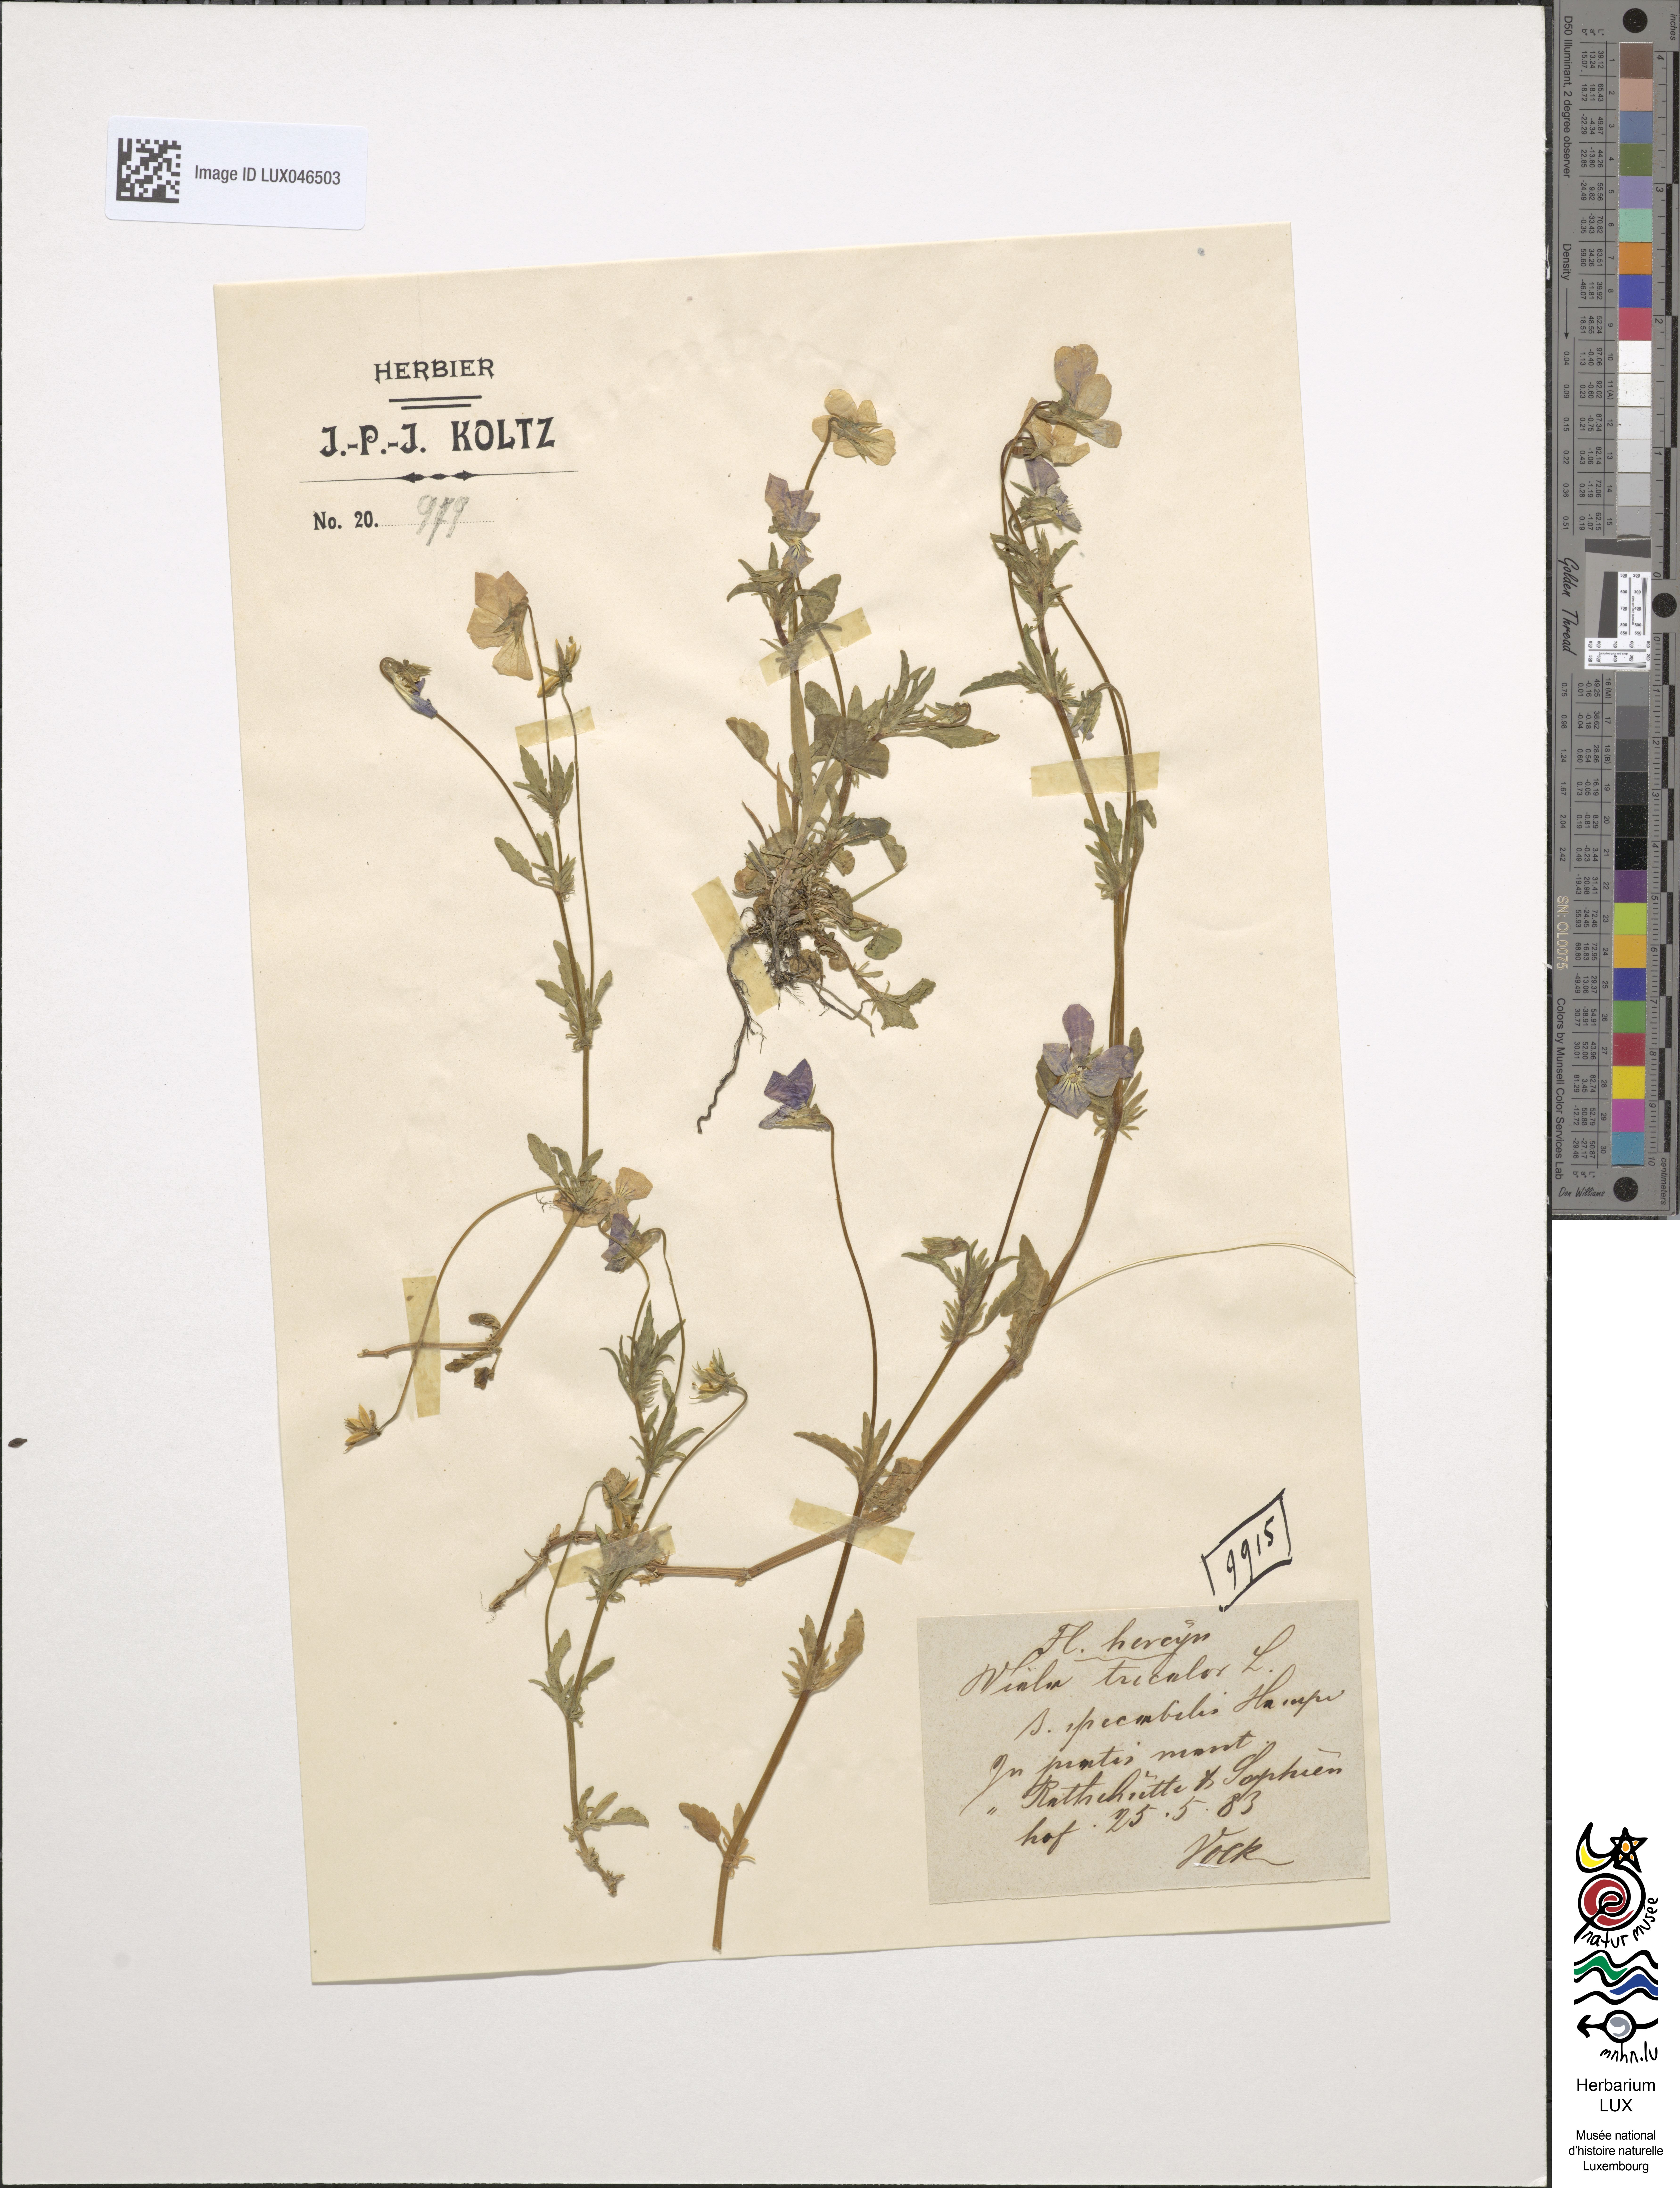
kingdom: Plantae
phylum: Tracheophyta
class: Magnoliopsida
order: Malpighiales
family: Violaceae
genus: Viola
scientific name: Viola tricolor
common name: Pansy
